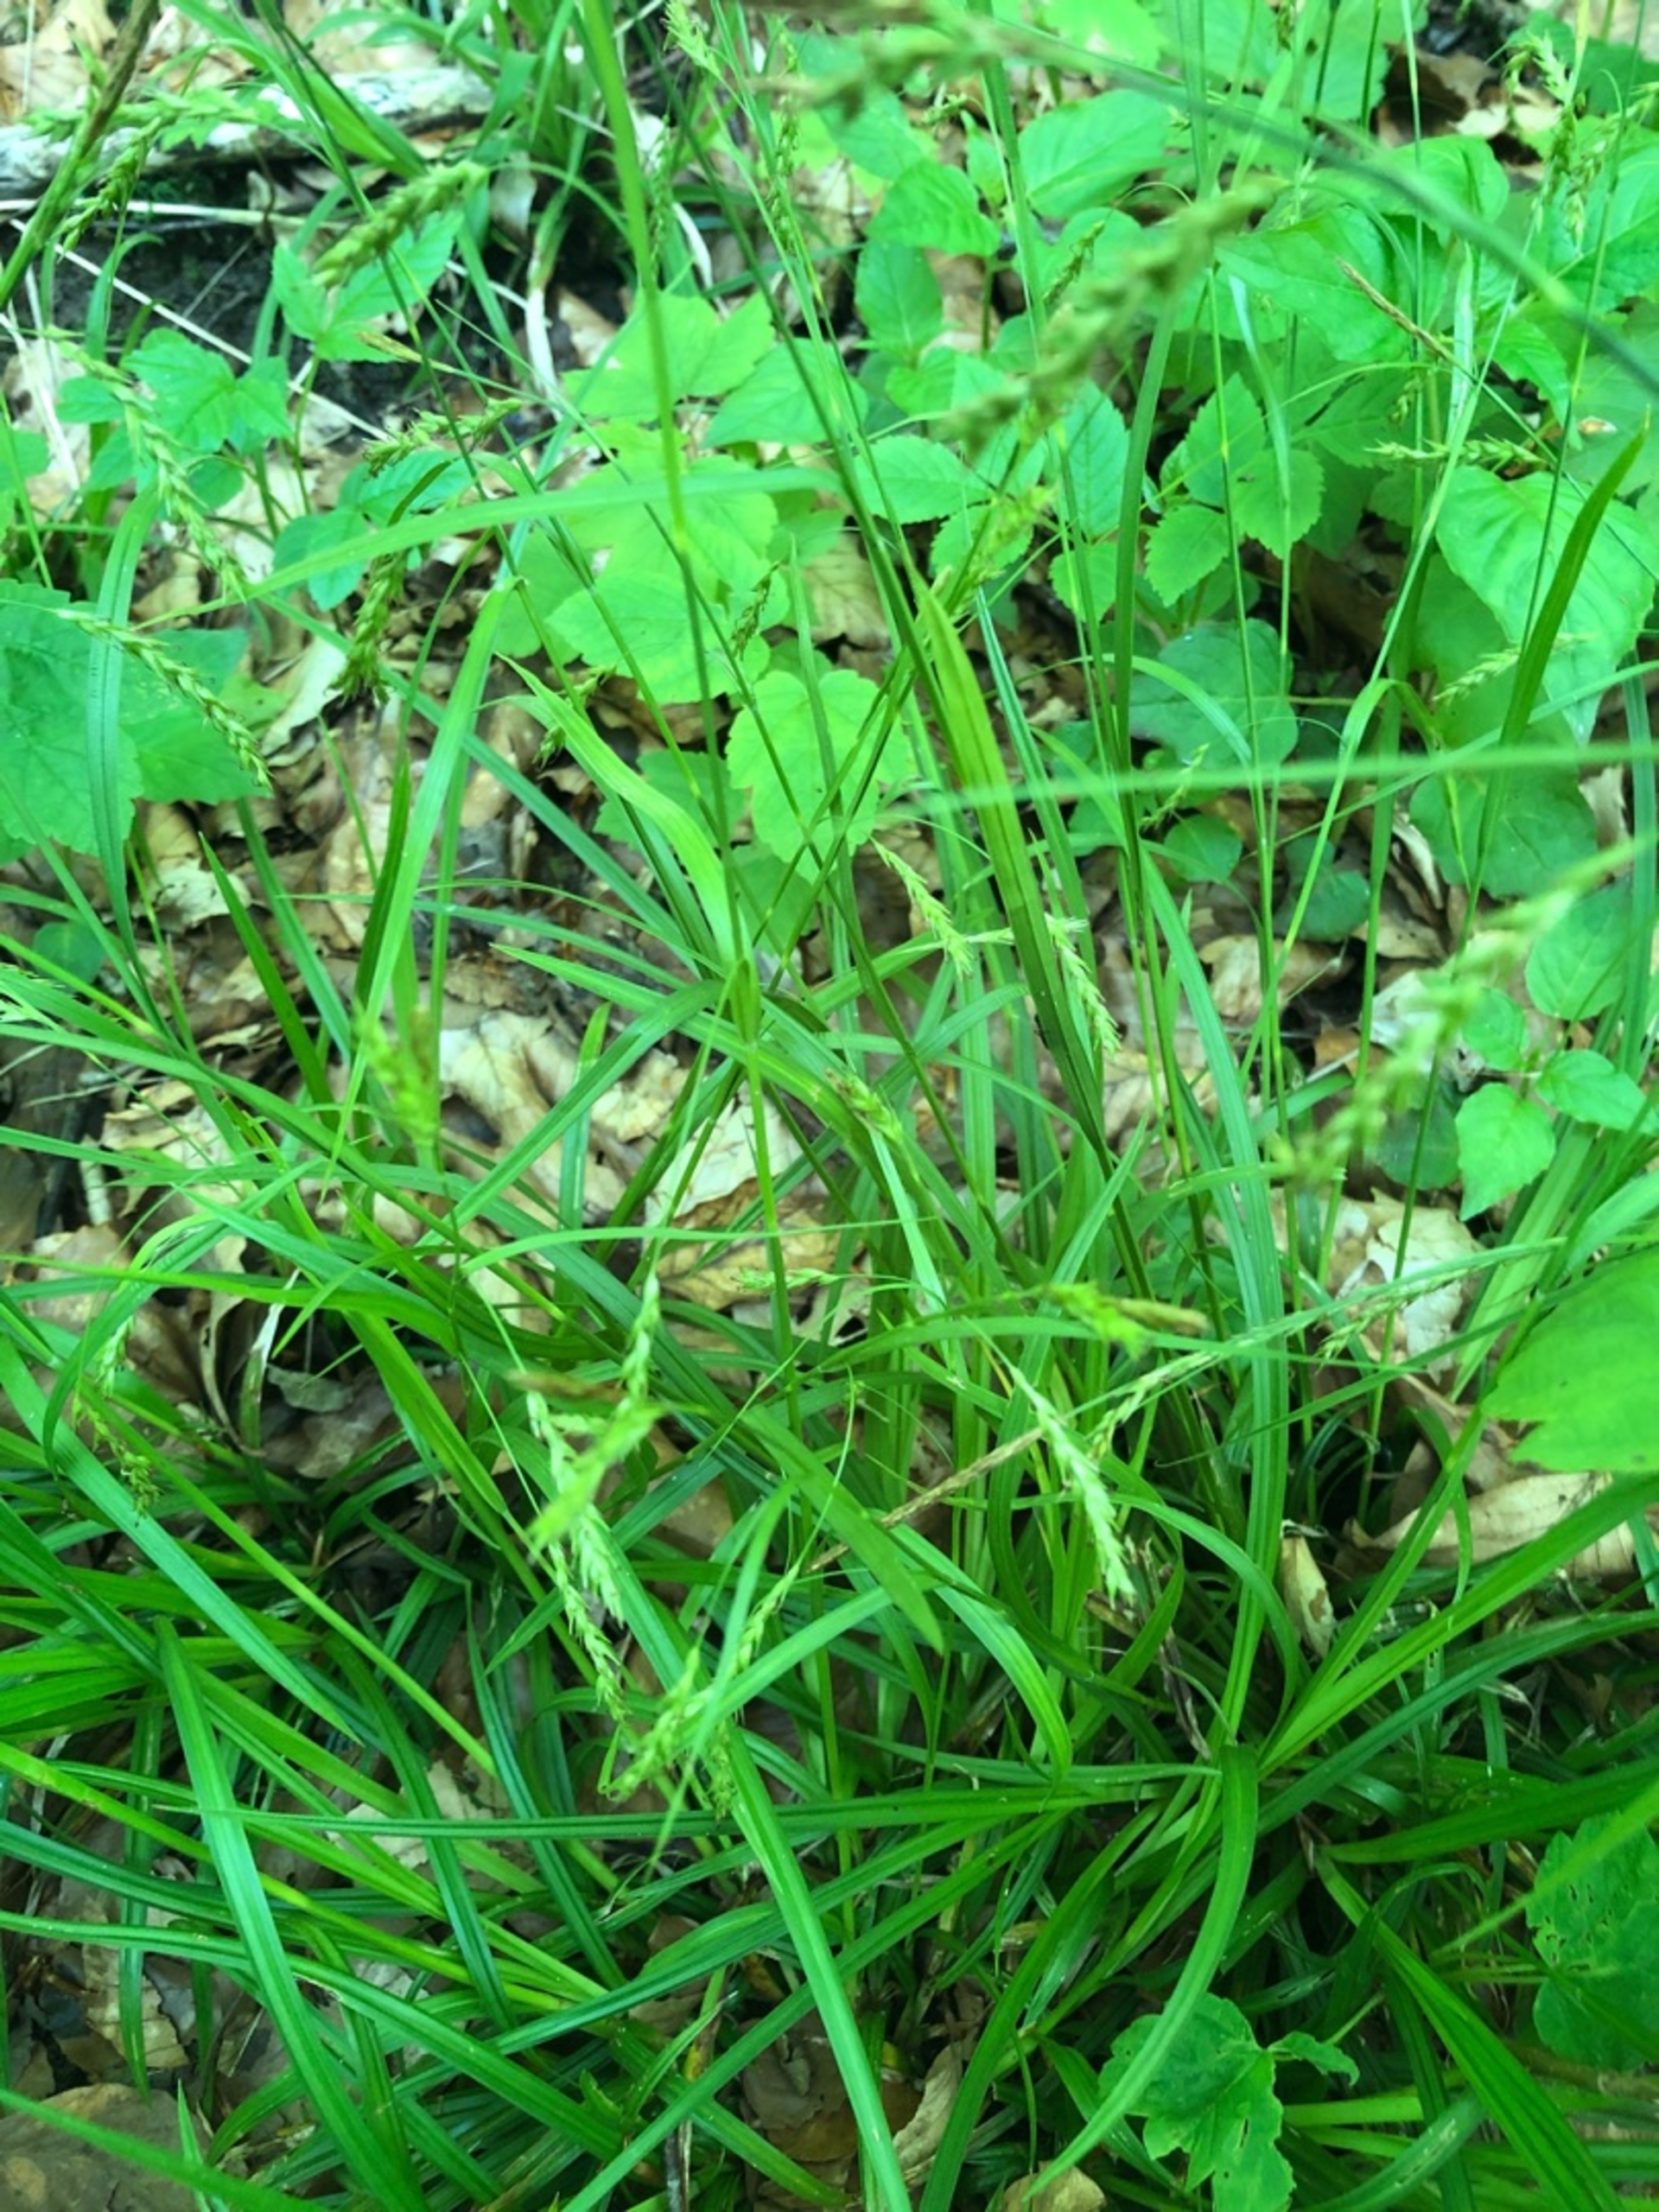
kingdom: Plantae
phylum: Tracheophyta
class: Liliopsida
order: Poales
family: Cyperaceae
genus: Carex
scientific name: Carex sylvatica
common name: Skov-star
